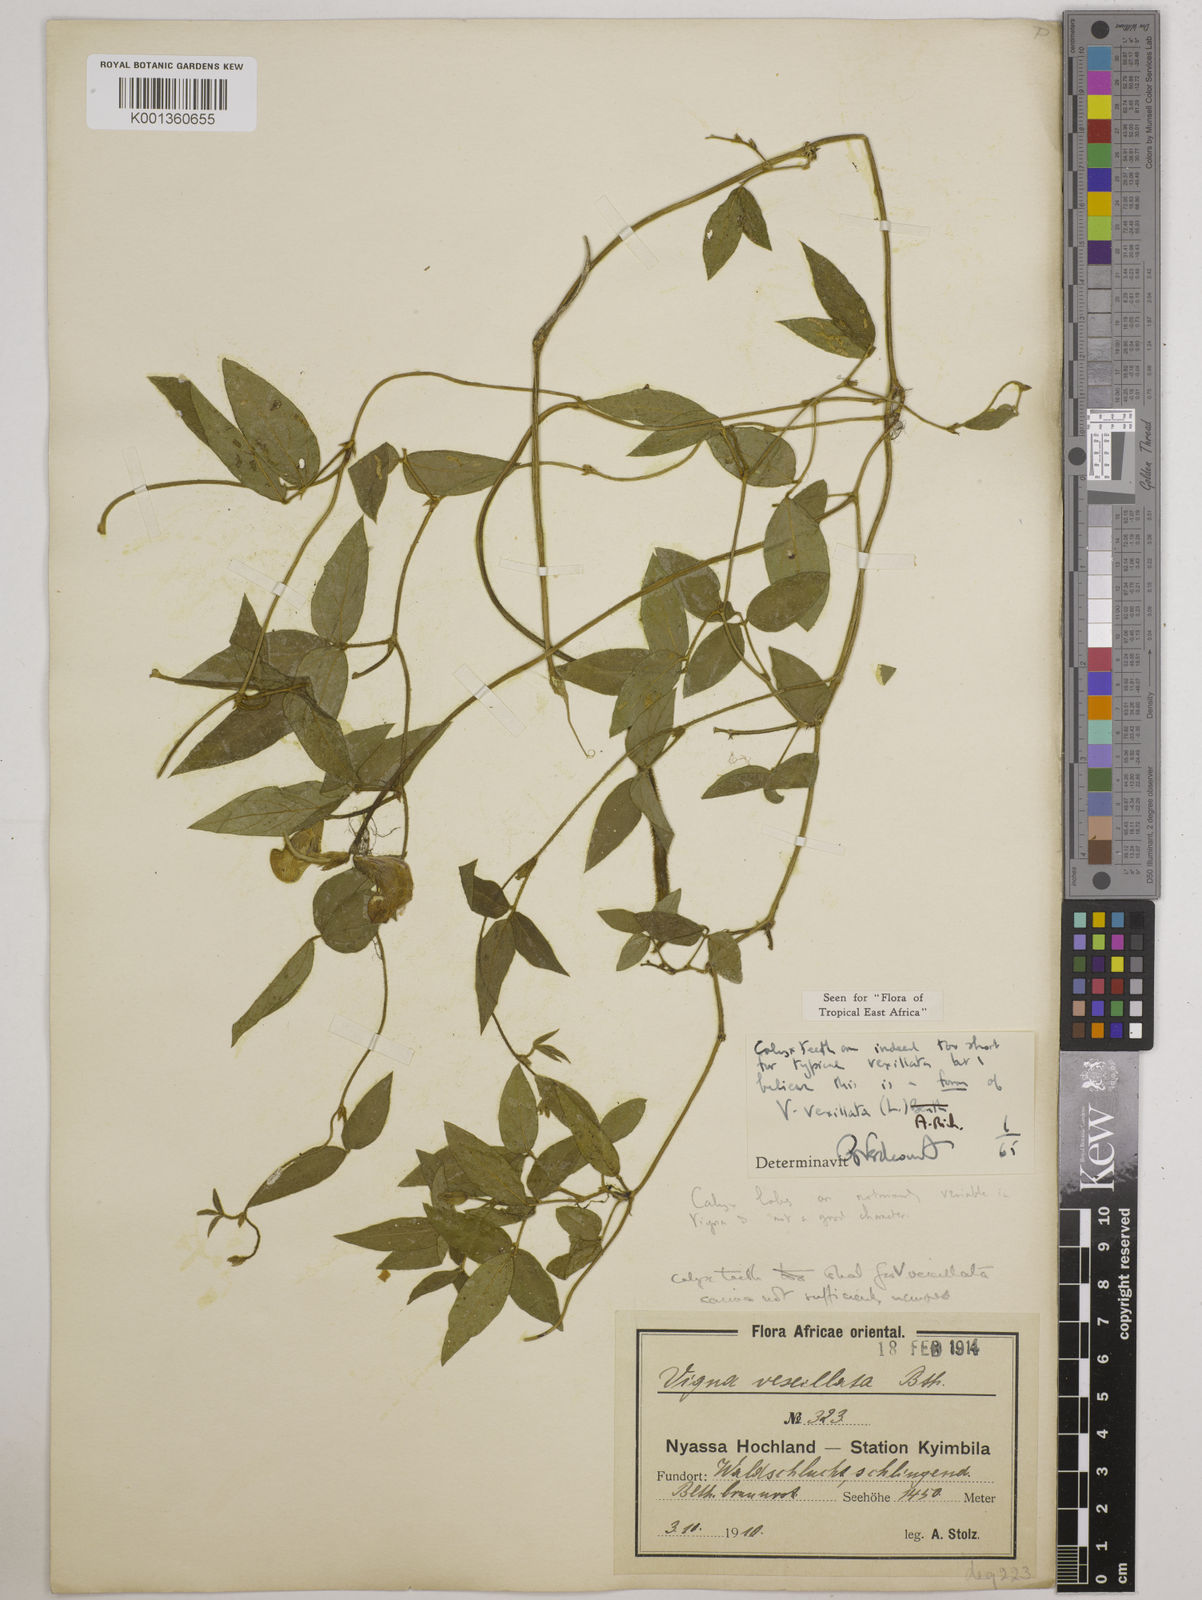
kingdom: Plantae
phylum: Tracheophyta
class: Magnoliopsida
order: Fabales
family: Fabaceae
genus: Vigna
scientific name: Vigna vexillata
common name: Zombi pea
